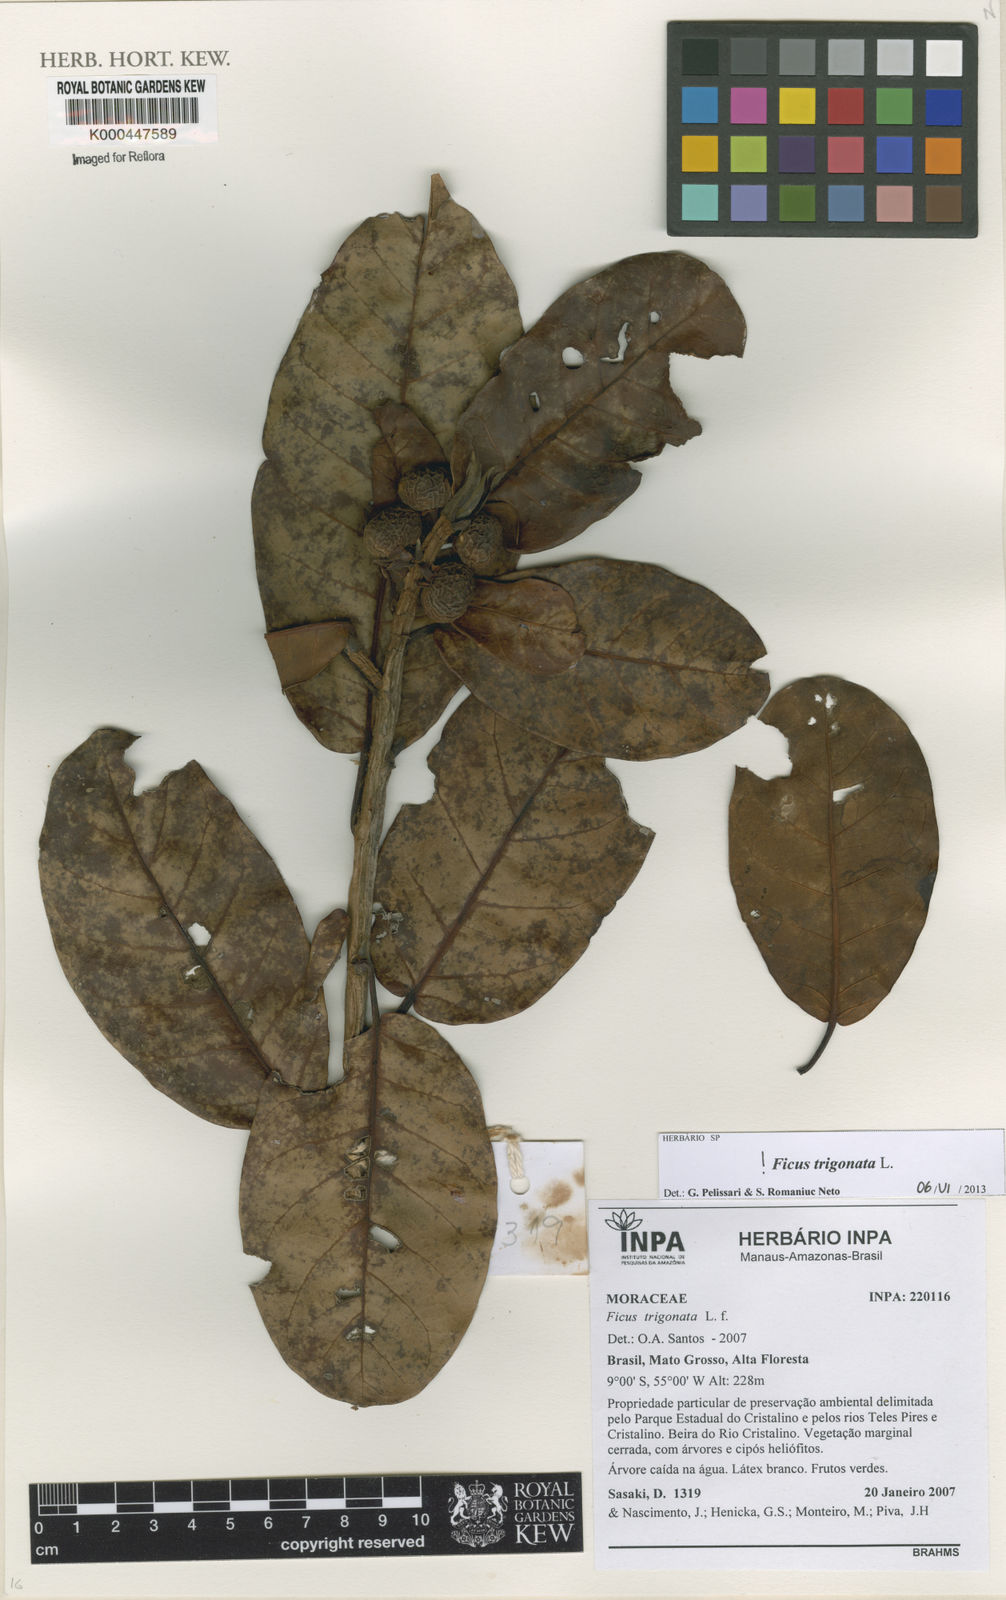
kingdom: Plantae
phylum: Tracheophyta
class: Magnoliopsida
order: Rosales
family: Moraceae
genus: Ficus
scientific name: Ficus trigonata
